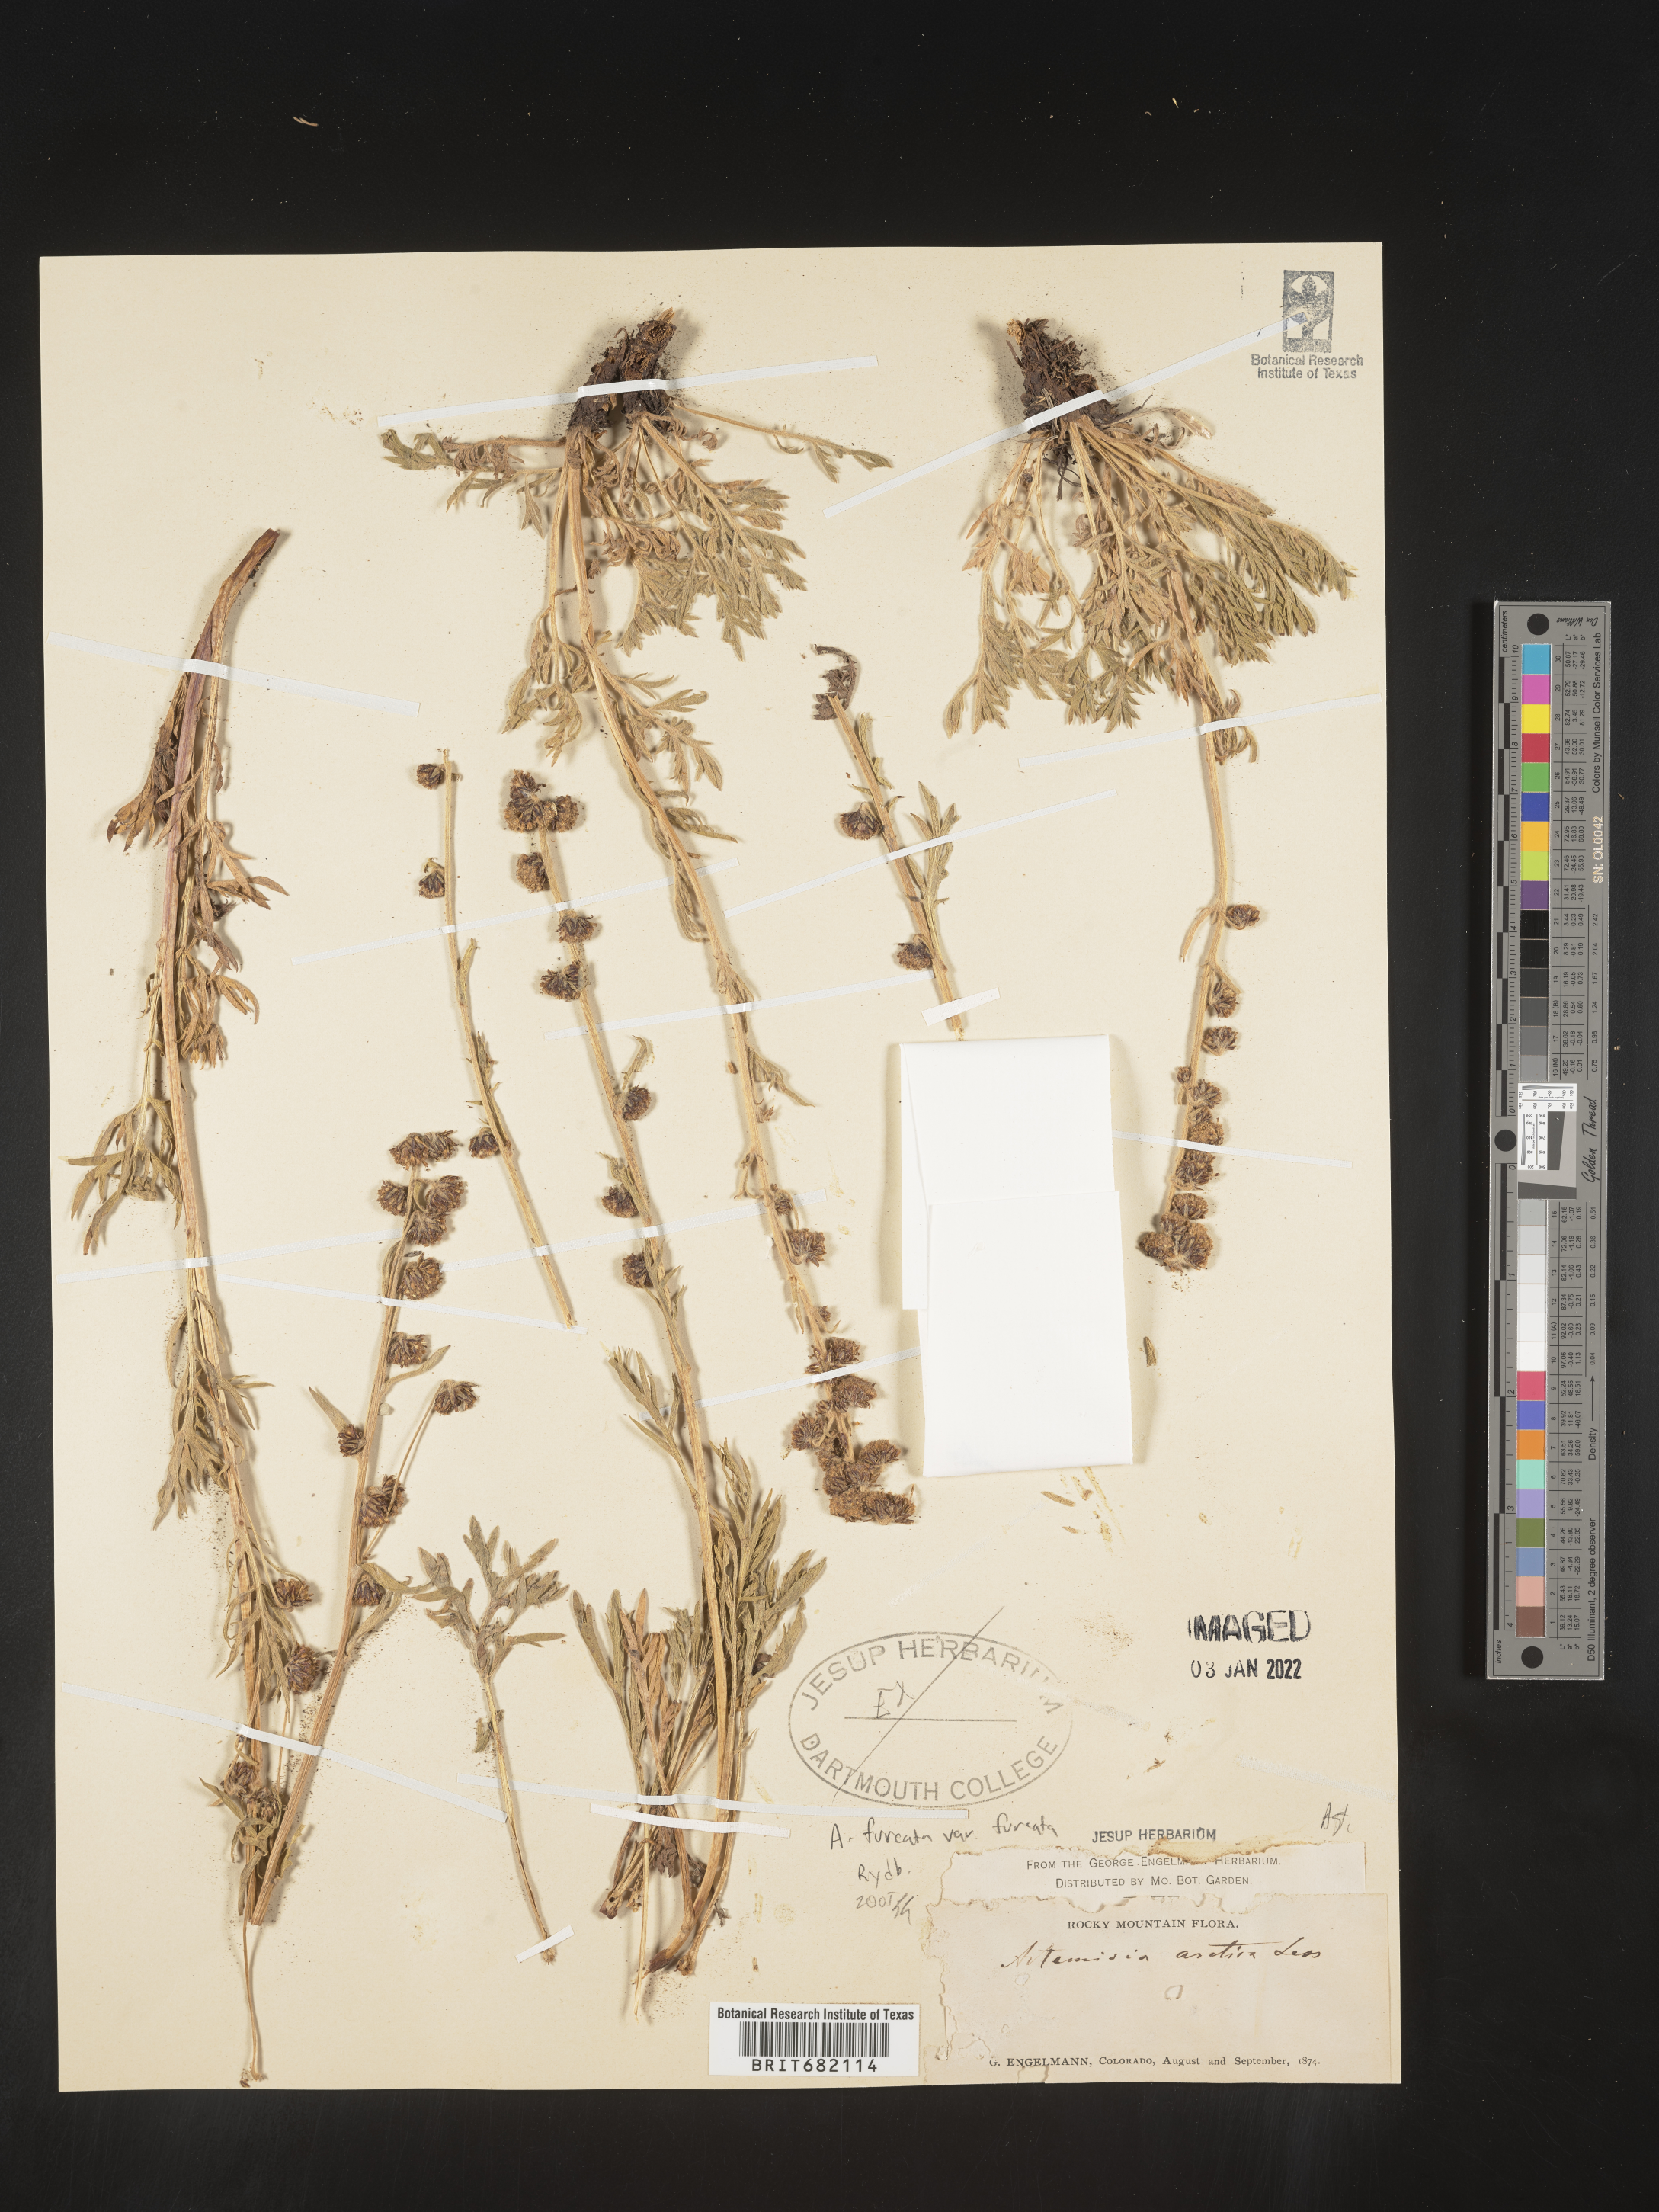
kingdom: Plantae
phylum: Tracheophyta
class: Magnoliopsida
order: Asterales
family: Asteraceae
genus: Artemisia
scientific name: Artemisia furcata
